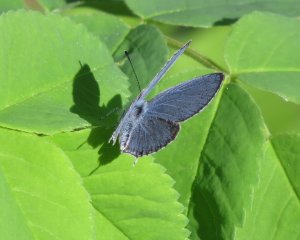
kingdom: Animalia
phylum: Arthropoda
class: Insecta
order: Lepidoptera
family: Lycaenidae
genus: Elkalyce
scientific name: Elkalyce amyntula
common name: Western Tailed-Blue
